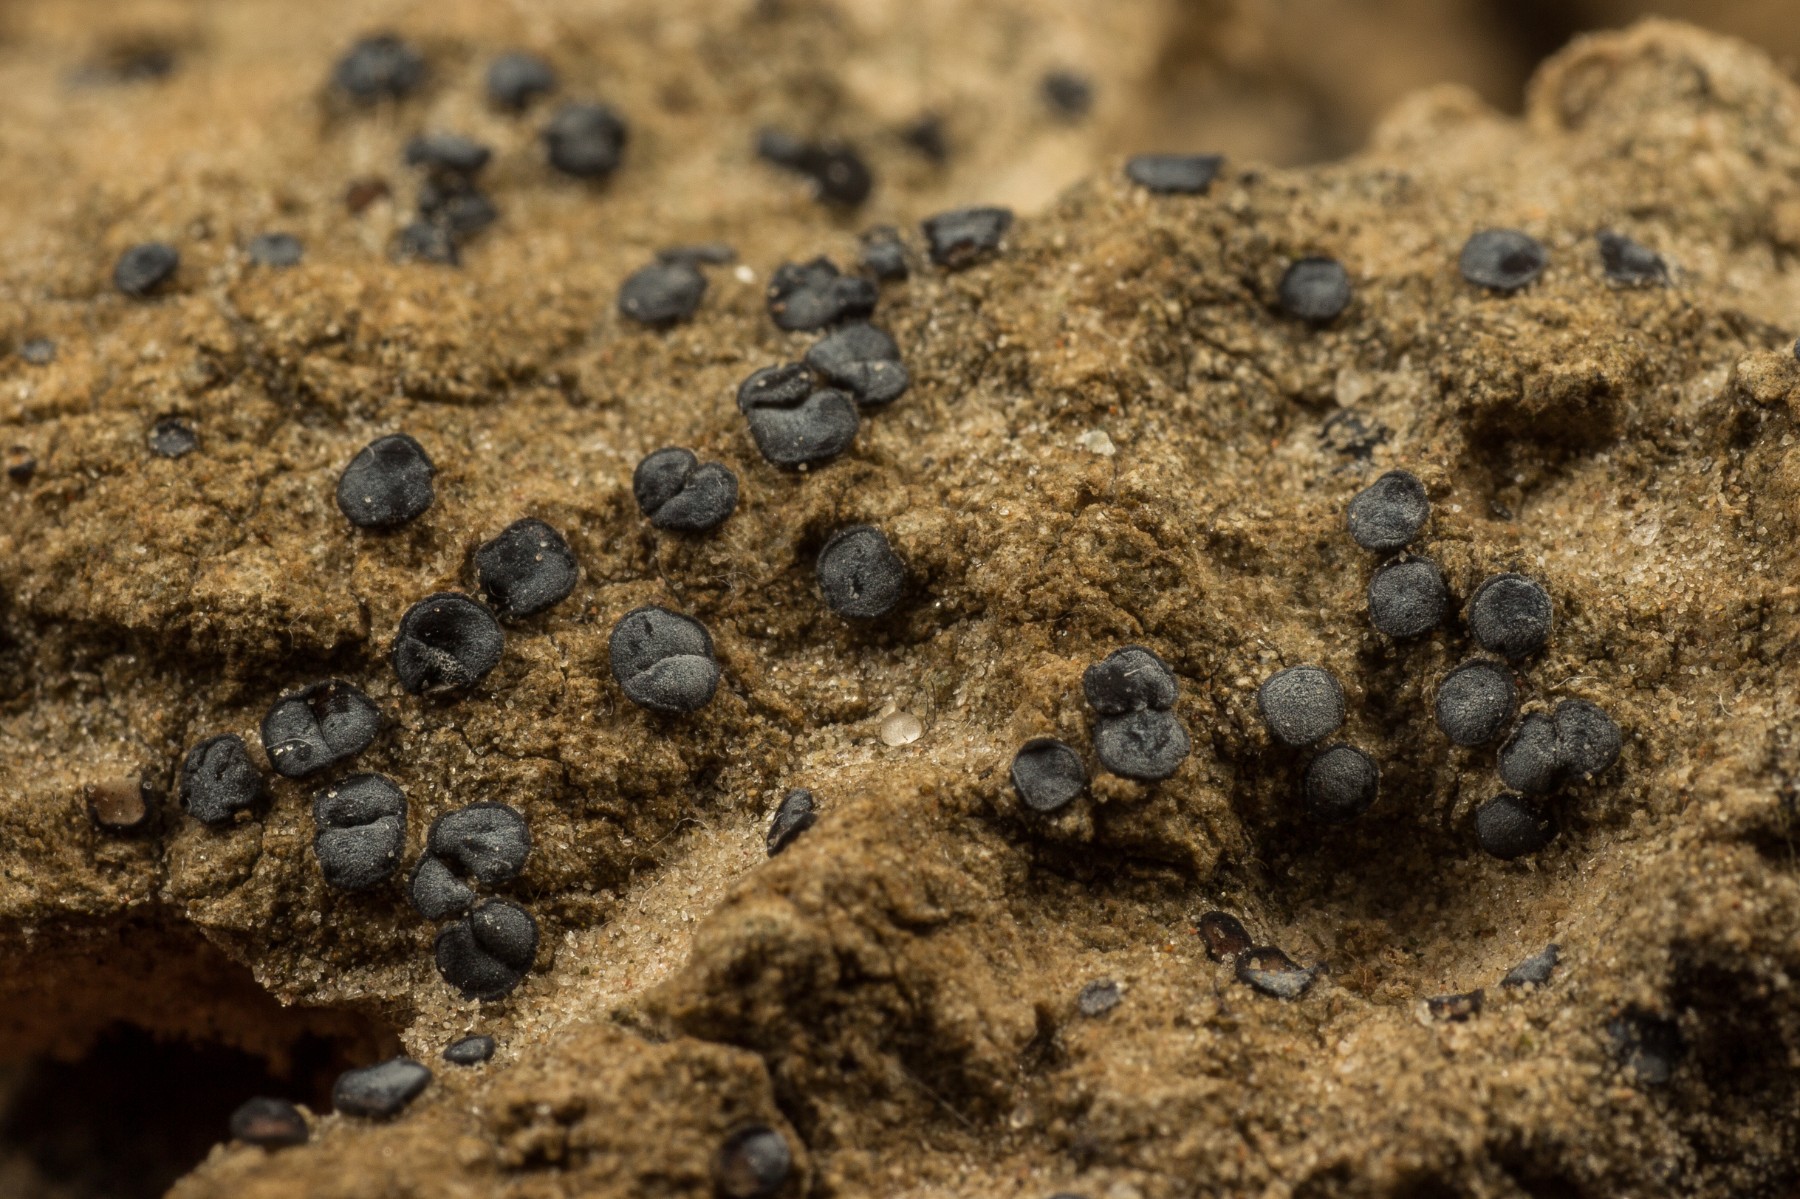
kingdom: Fungi
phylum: Ascomycota
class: Lecanoromycetes
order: Acarosporales
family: Acarosporaceae
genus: Sarcogyne
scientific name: Sarcogyne regularis
